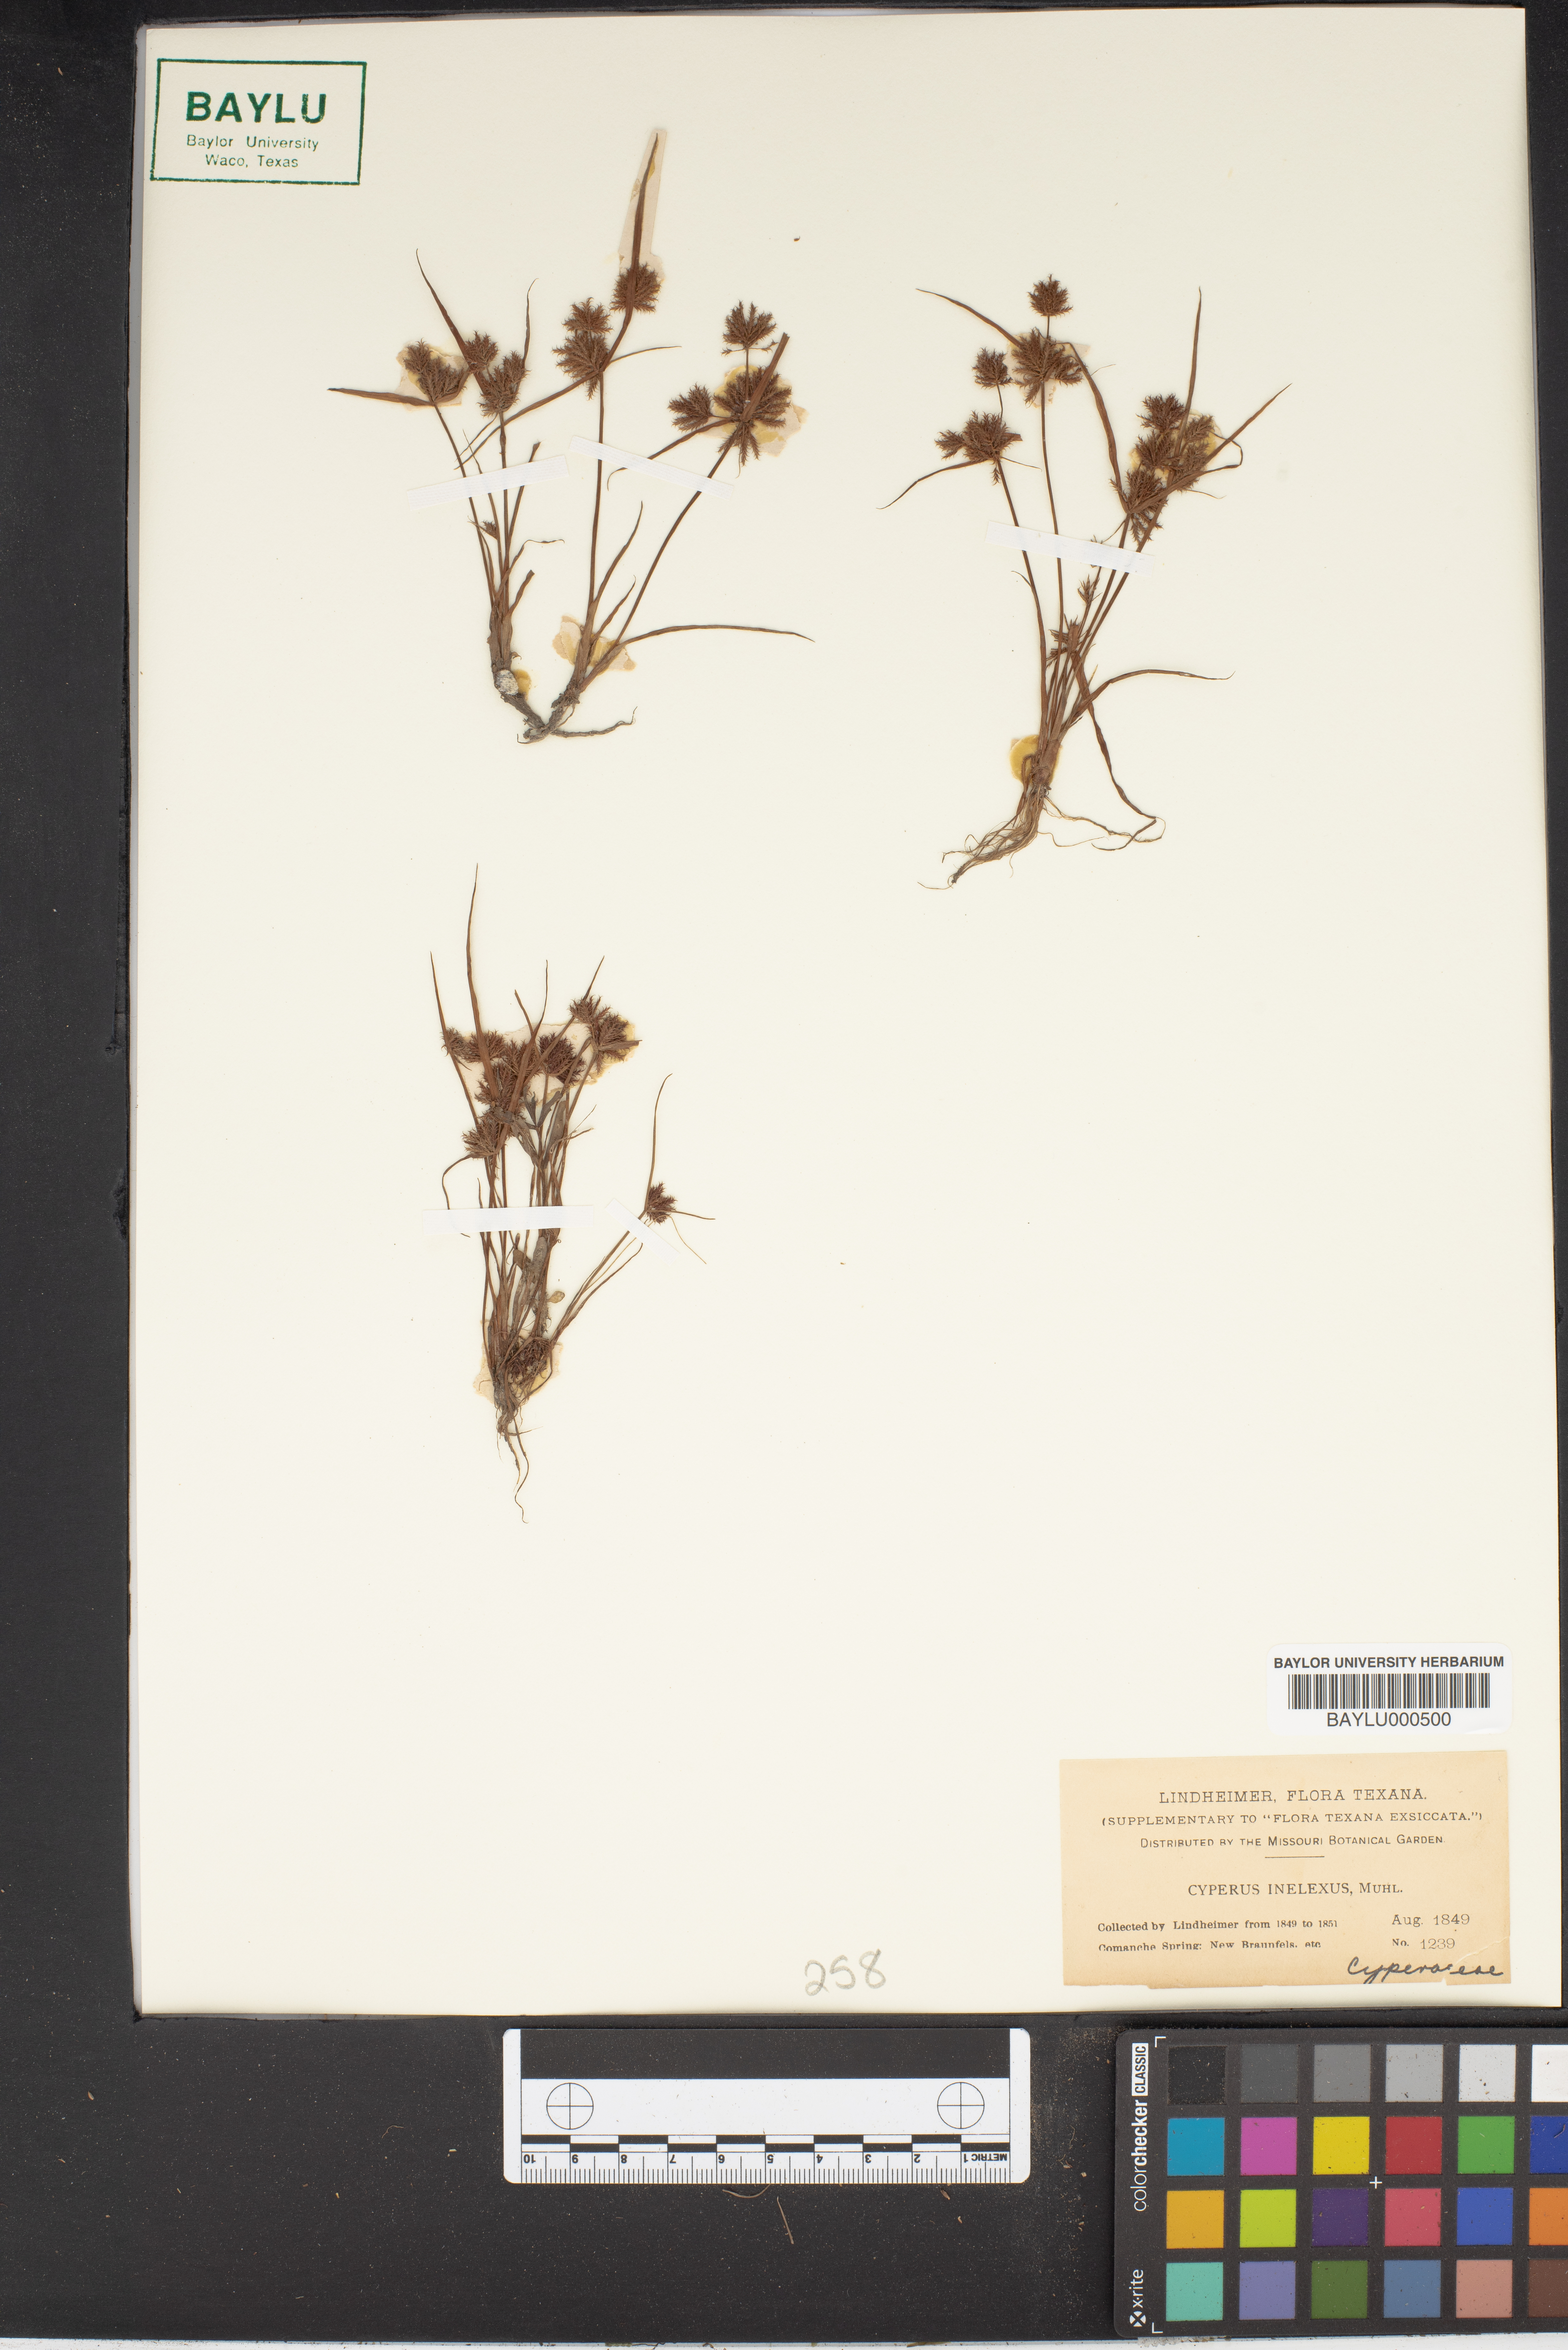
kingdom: Plantae
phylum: Tracheophyta
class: Liliopsida
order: Poales
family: Cyperaceae
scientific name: Cyperaceae
